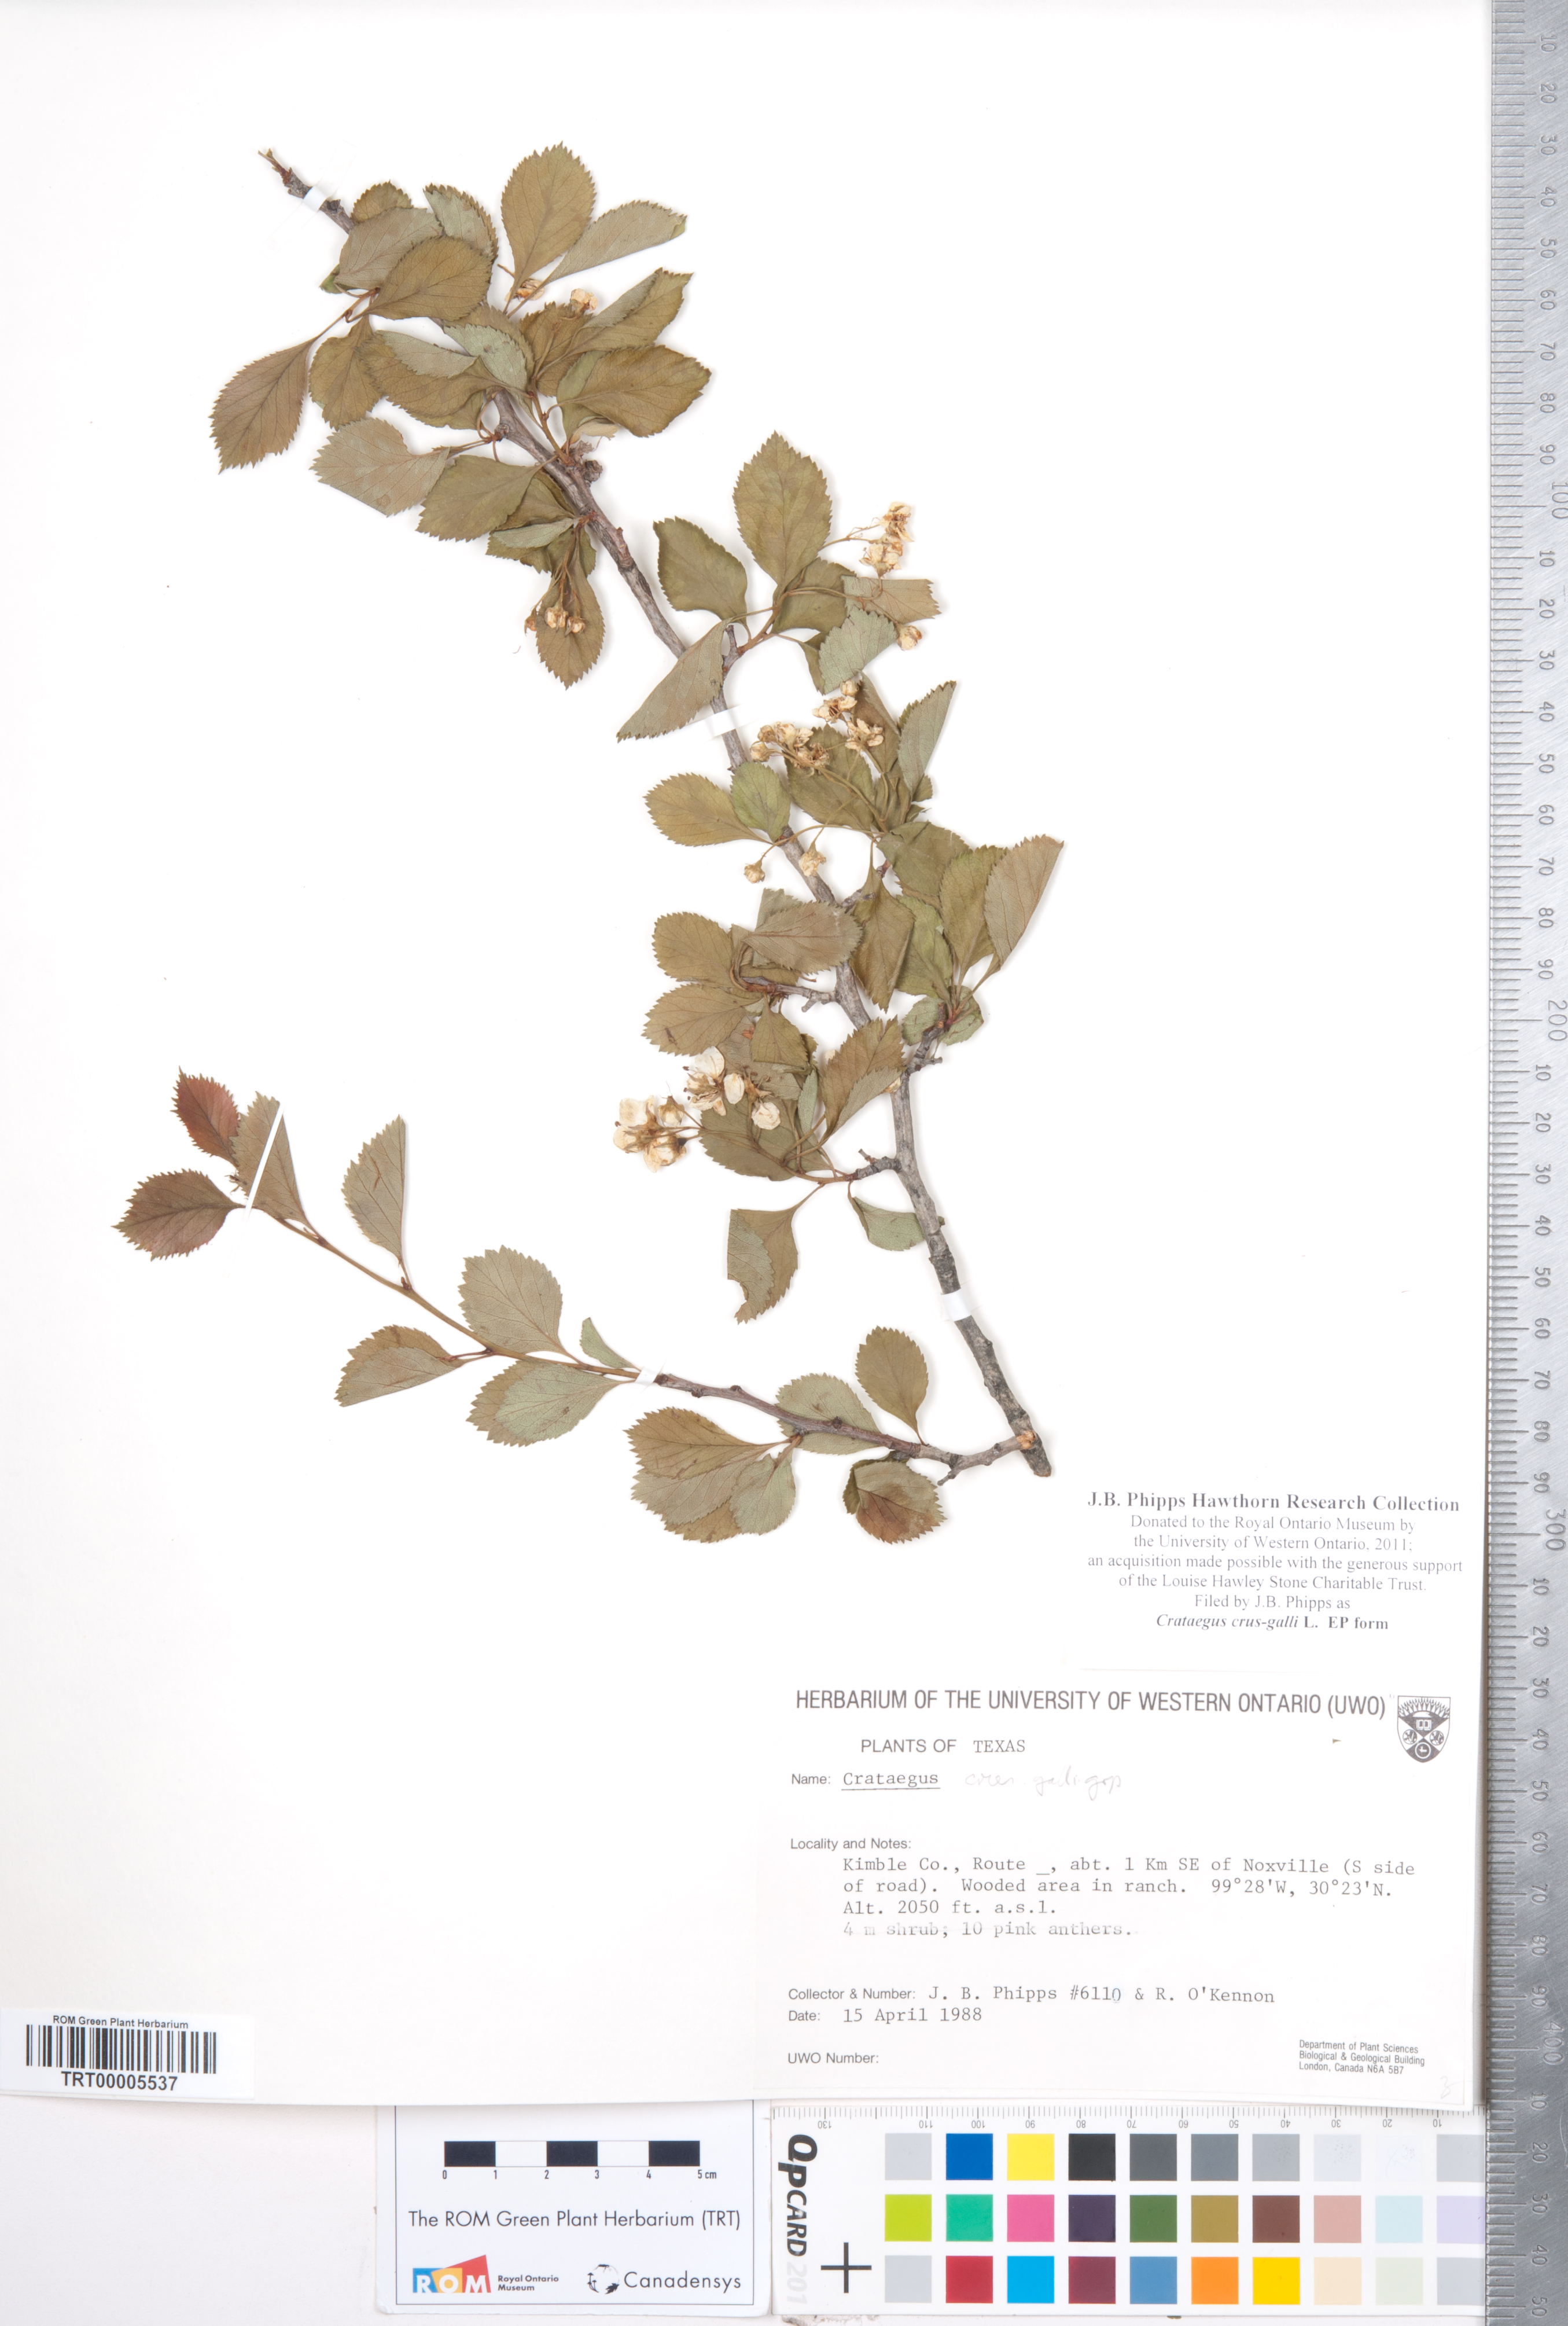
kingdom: Plantae
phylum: Tracheophyta
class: Magnoliopsida
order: Rosales
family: Rosaceae
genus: Crataegus
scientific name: Crataegus crus-galli
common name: Cockspurthorn
